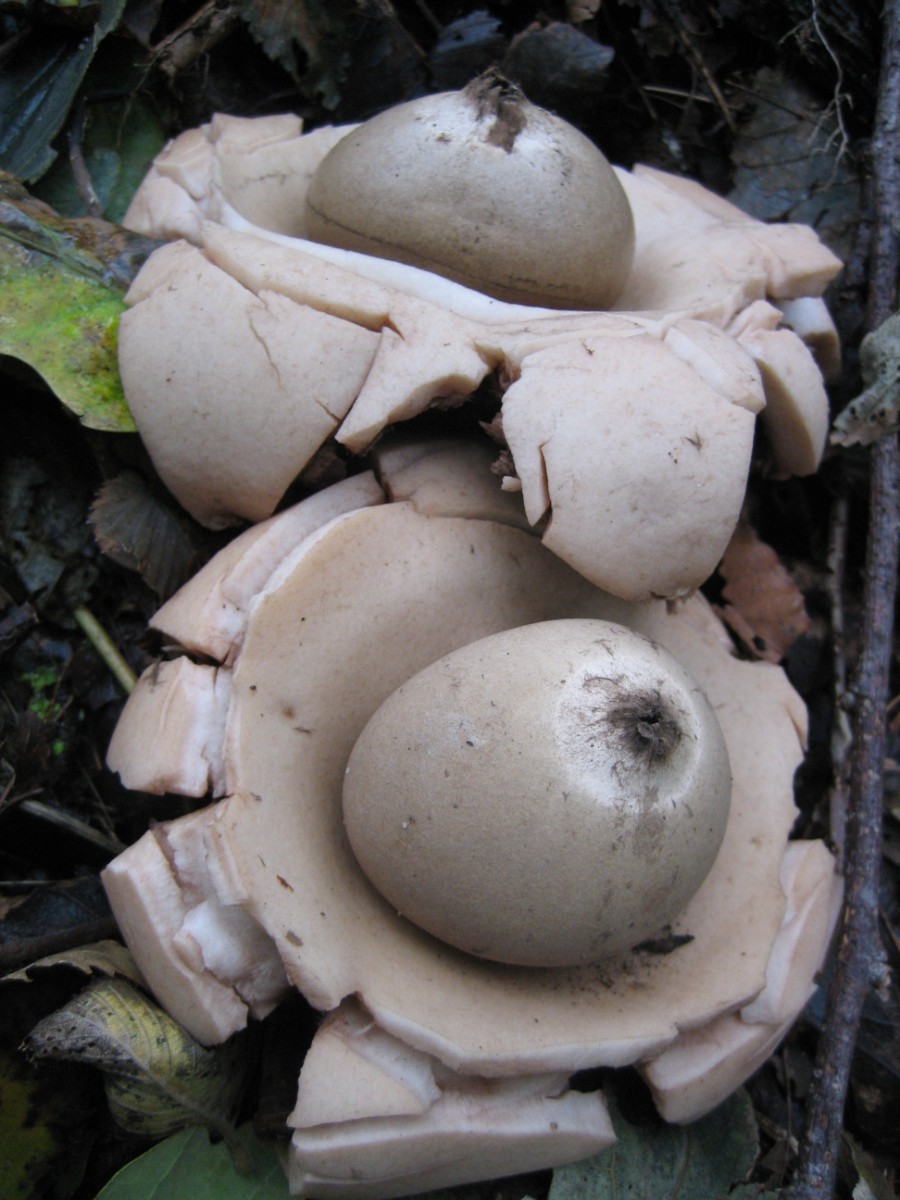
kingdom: Fungi
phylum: Basidiomycota
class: Agaricomycetes
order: Geastrales
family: Geastraceae
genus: Geastrum
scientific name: Geastrum michelianum
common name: kødet stjernebold
